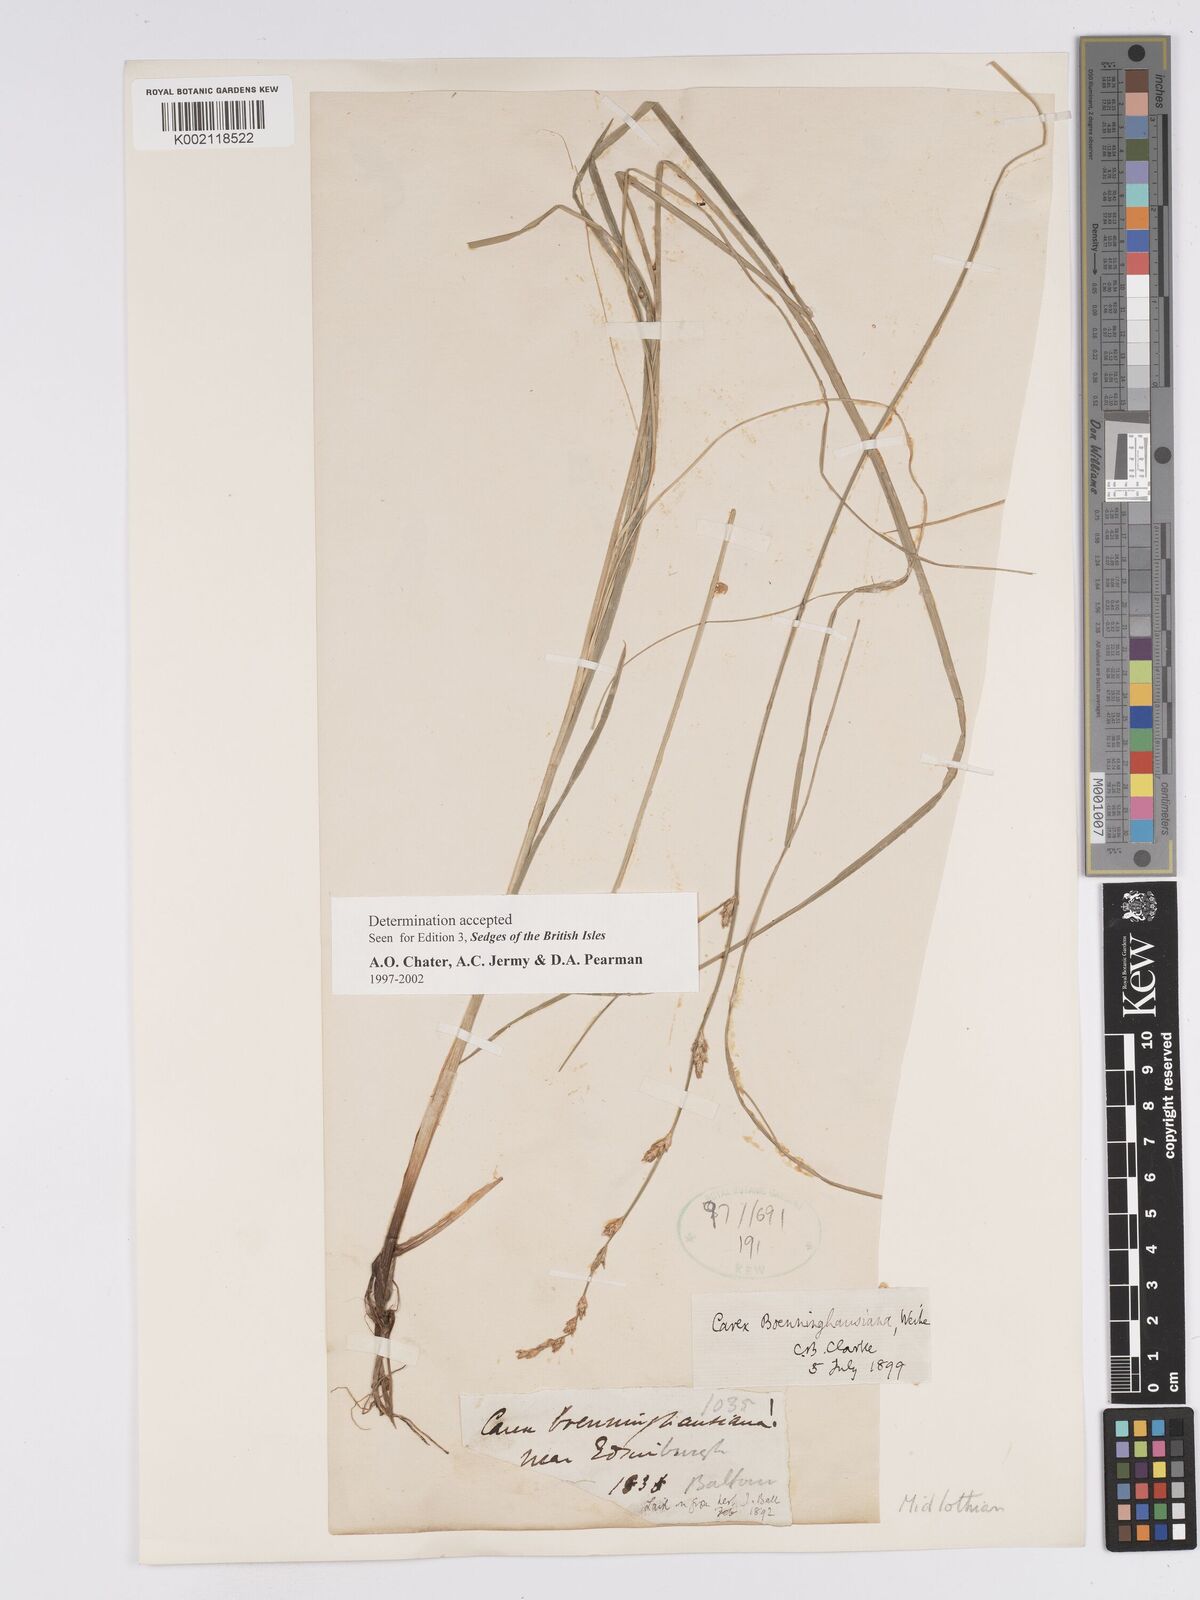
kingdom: Plantae
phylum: Tracheophyta
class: Liliopsida
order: Poales
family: Cyperaceae
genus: Carex
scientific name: Carex boenninghausiana
